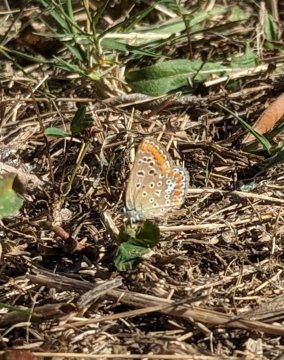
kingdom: Animalia
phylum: Arthropoda
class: Insecta
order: Lepidoptera
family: Lycaenidae
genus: Polyommatus
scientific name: Polyommatus icarus
